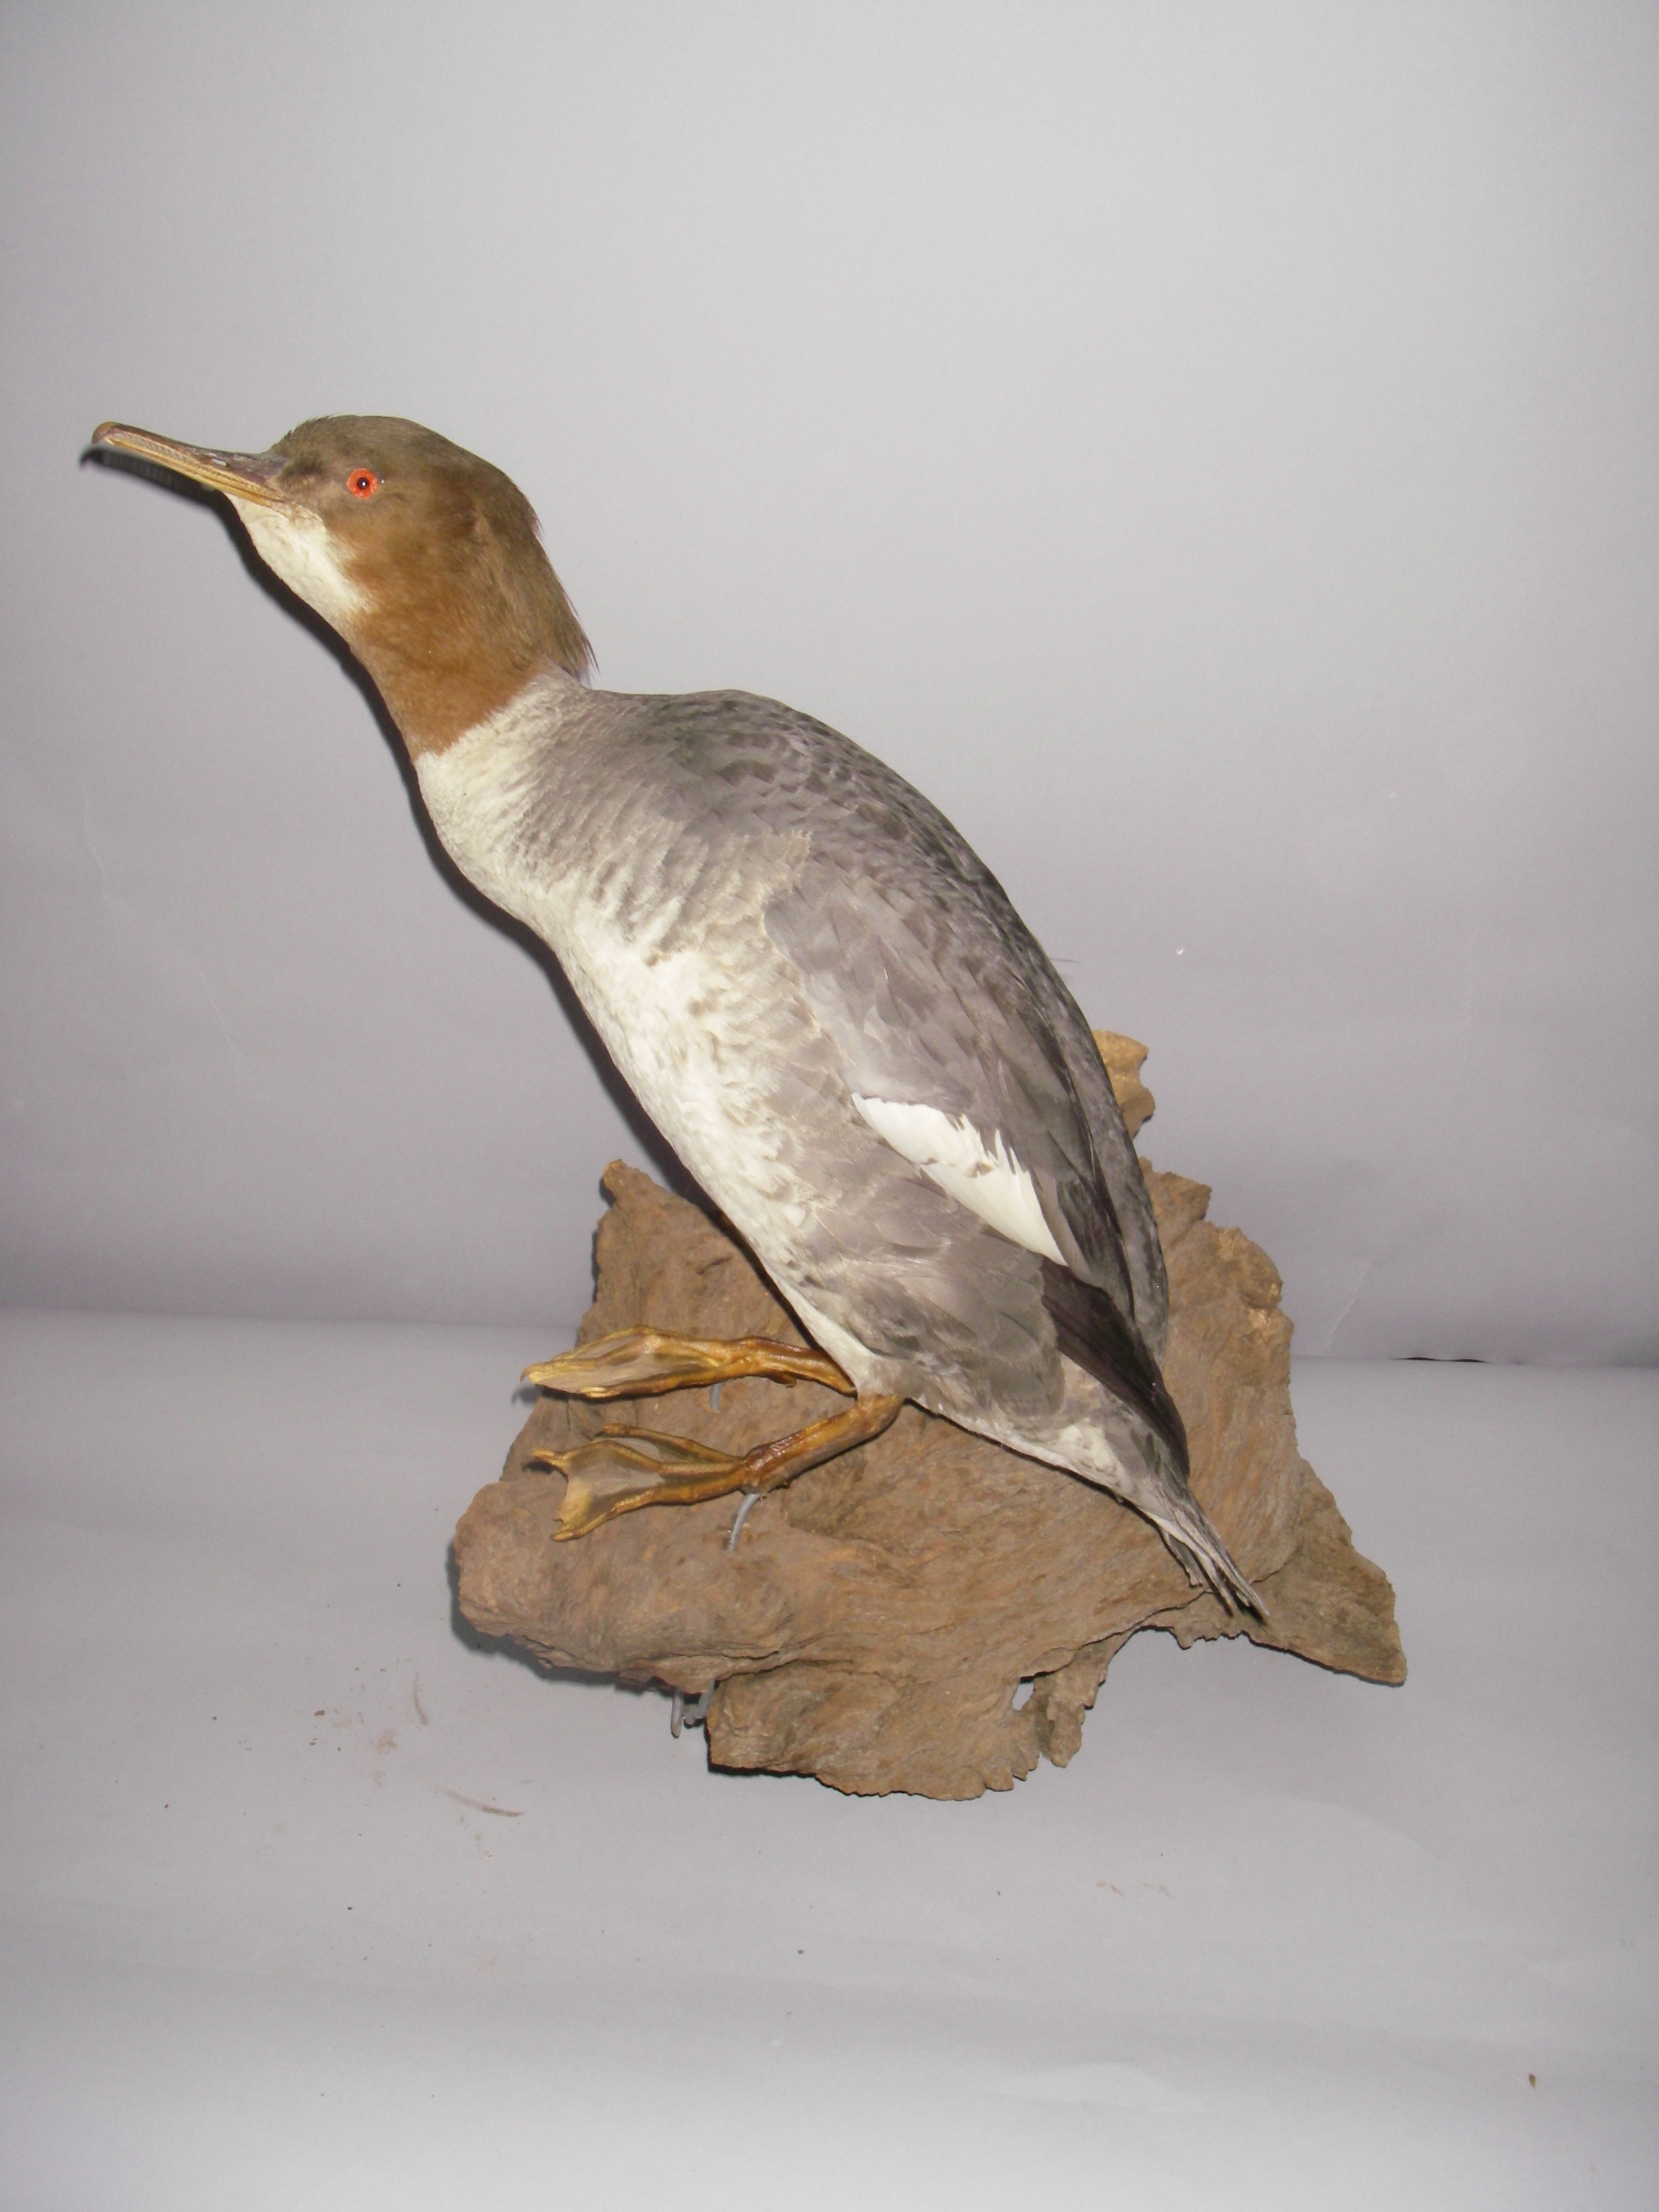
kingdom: Animalia
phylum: Chordata
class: Aves
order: Anseriformes
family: Anatidae
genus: Mergus
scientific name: Mergus merganser
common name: Common merganser
